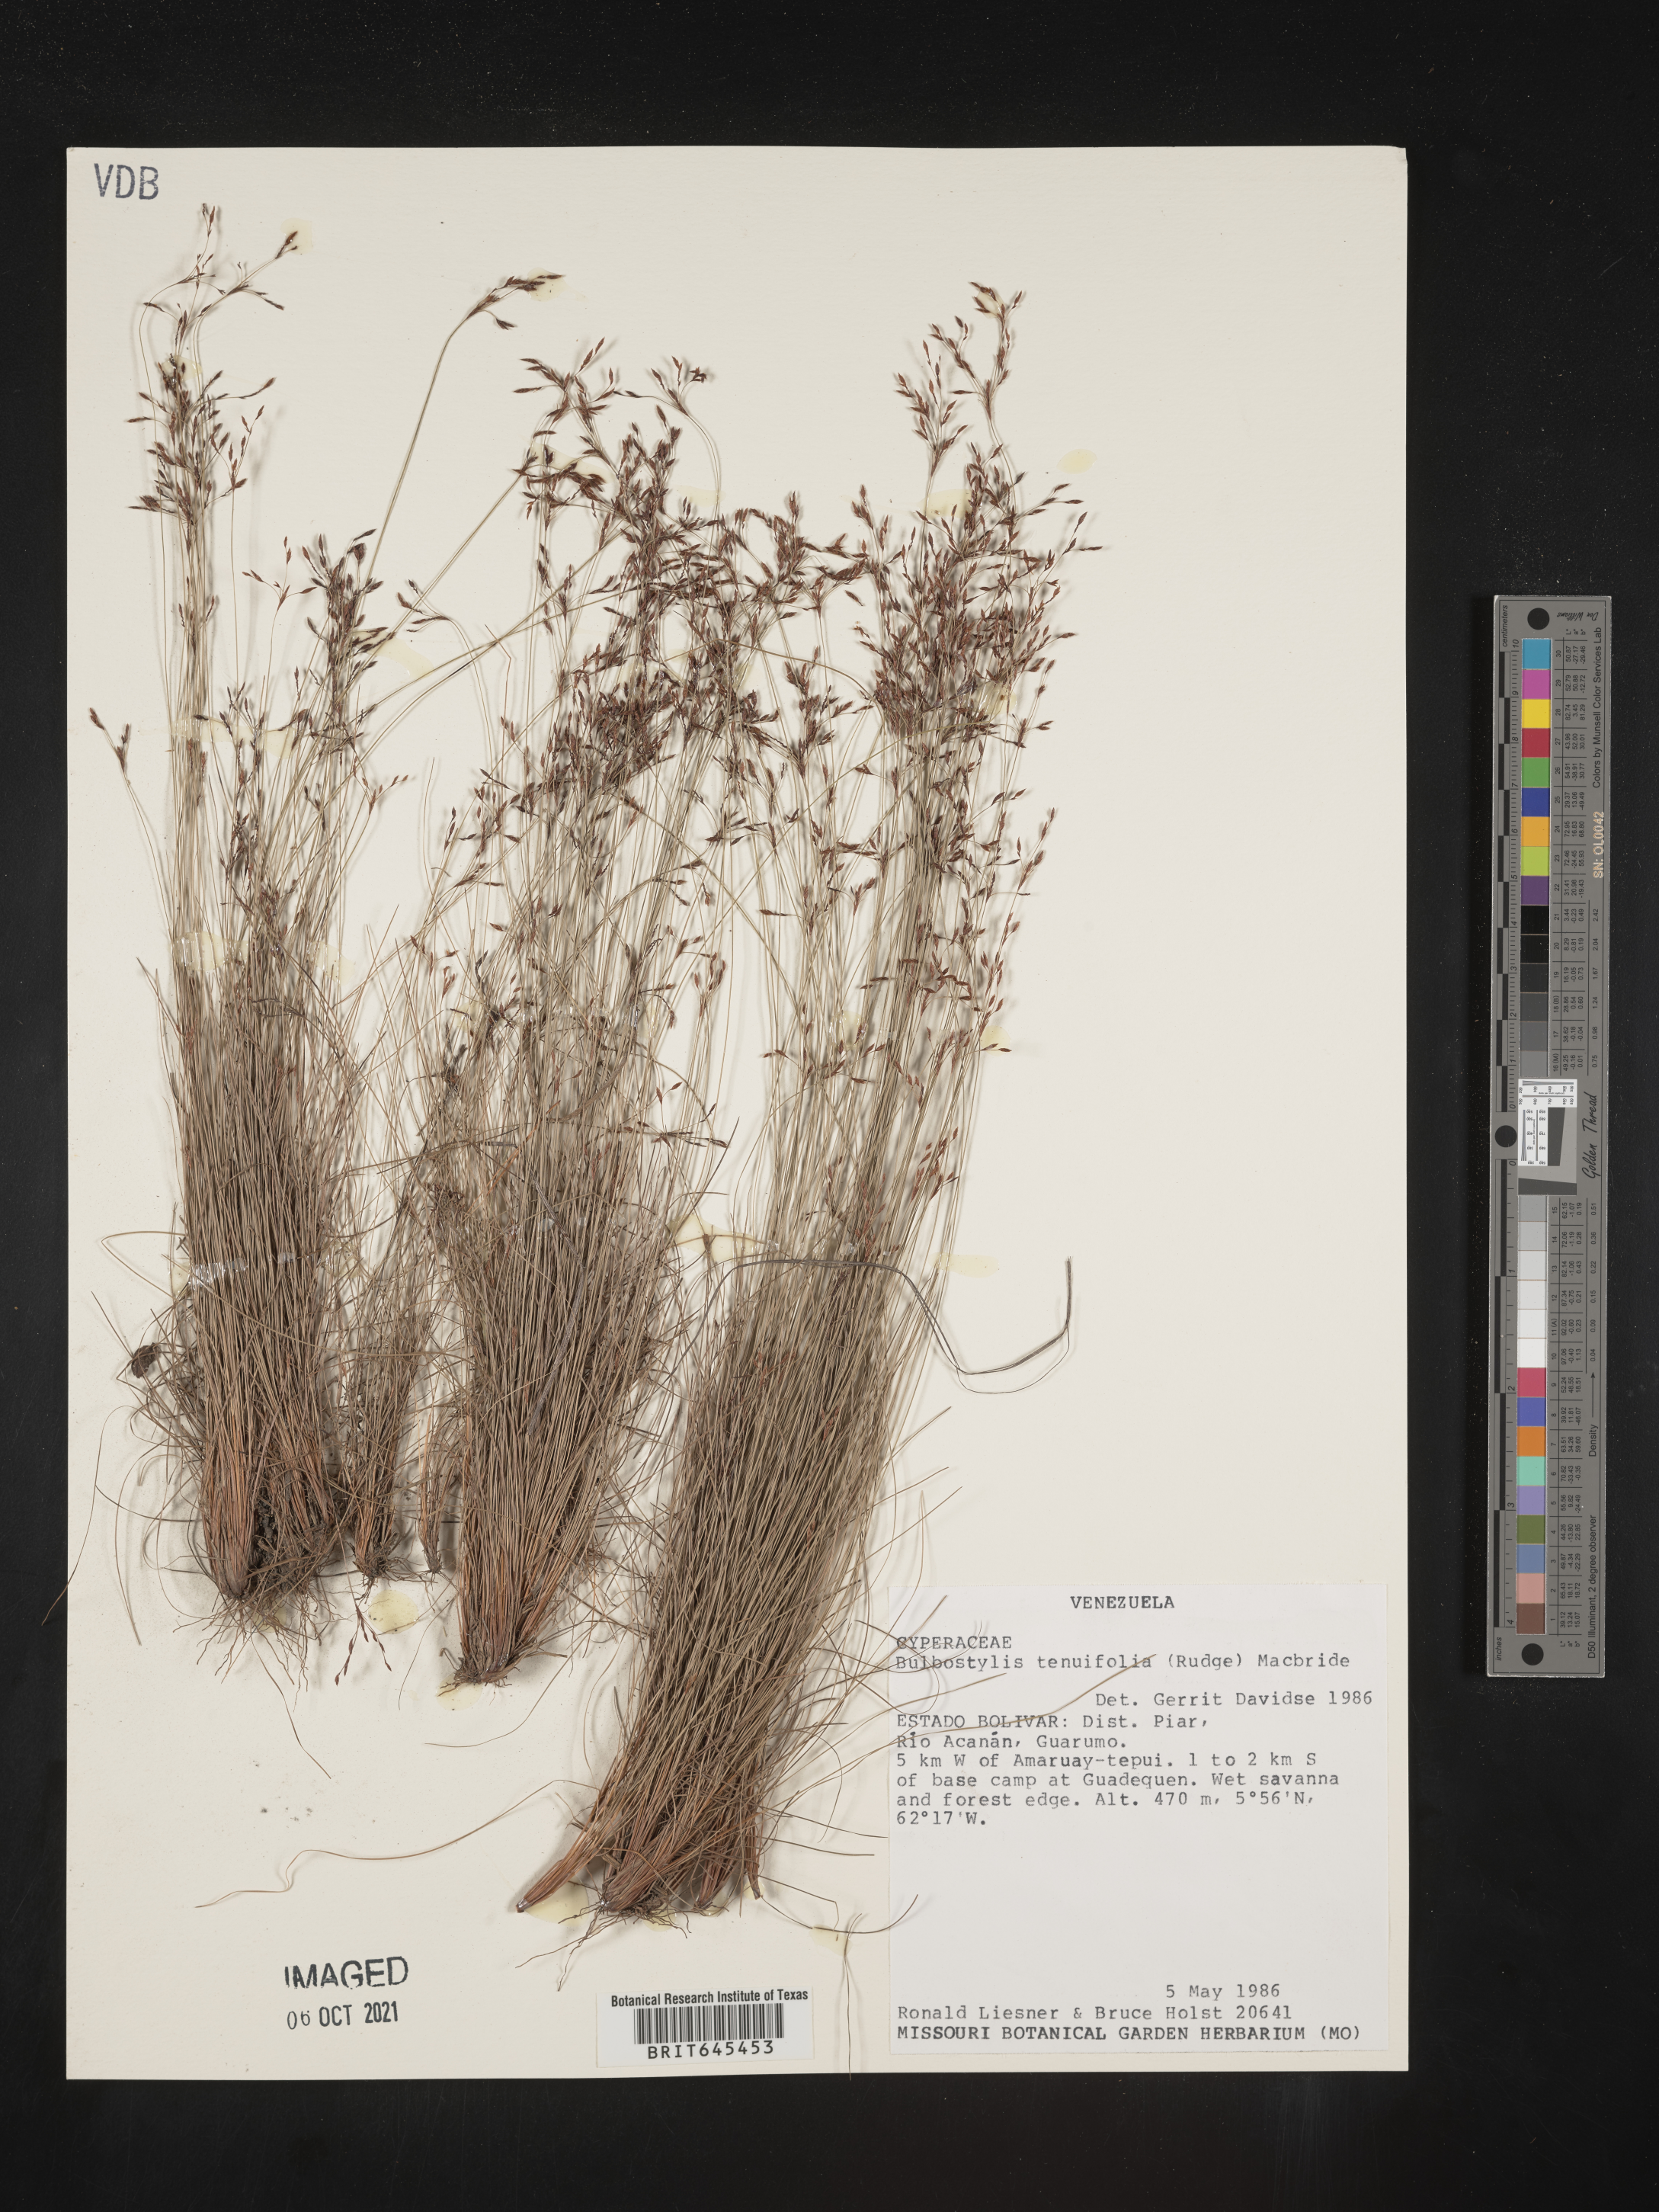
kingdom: Plantae
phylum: Tracheophyta
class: Liliopsida
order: Poales
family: Cyperaceae
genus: Eleocharis
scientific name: Eleocharis Bulbostylis tenuifolia
